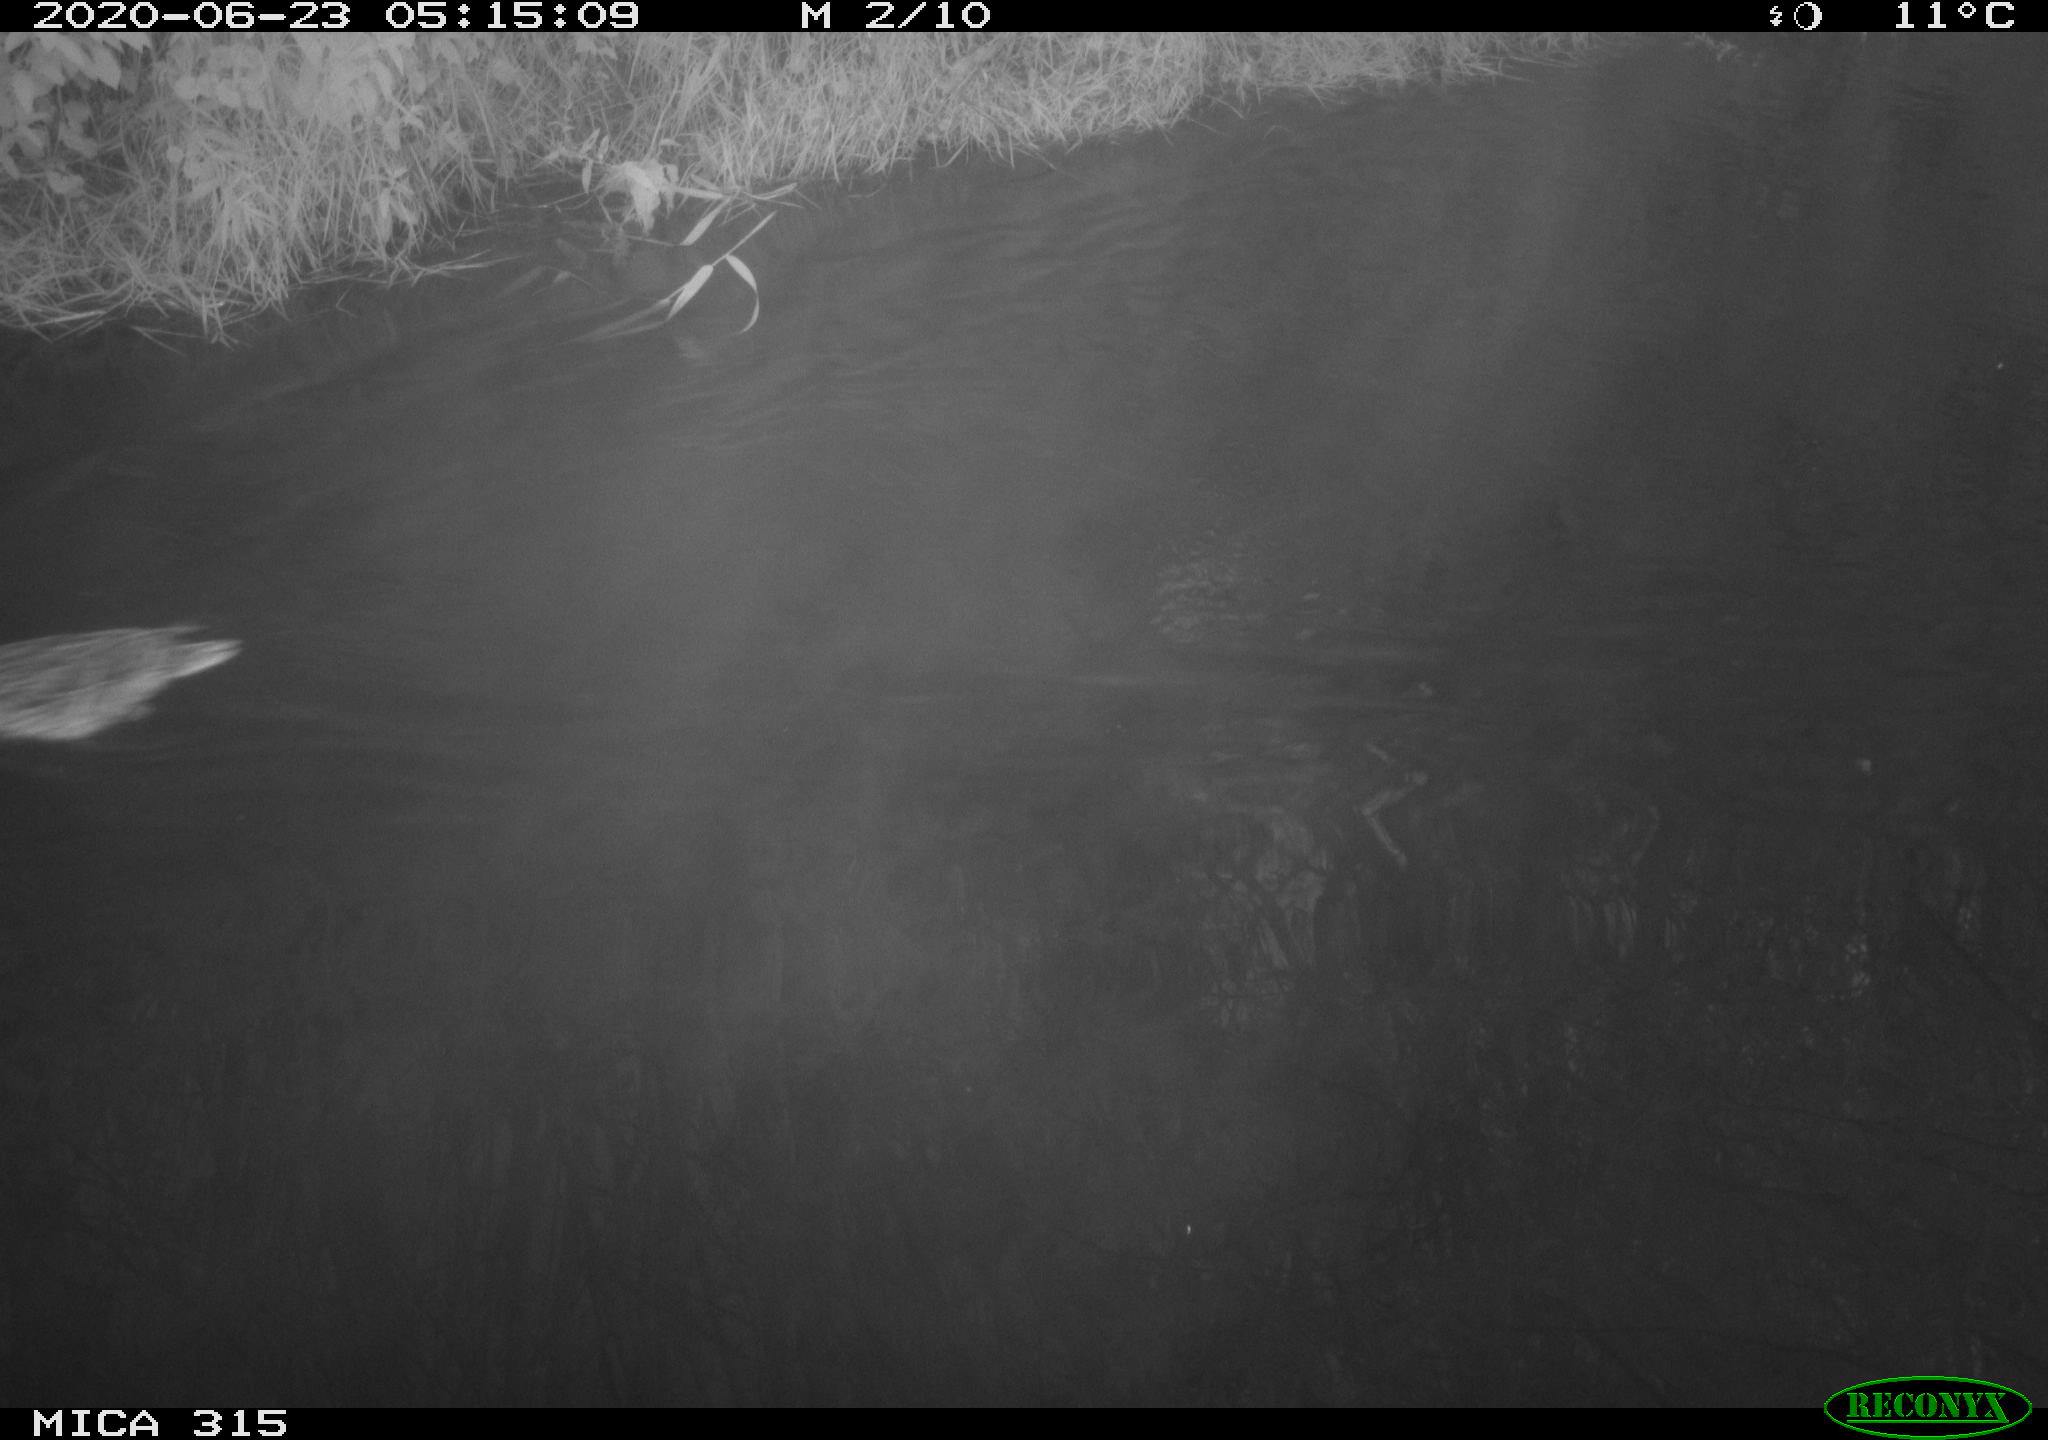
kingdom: Animalia
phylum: Chordata
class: Aves
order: Anseriformes
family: Anatidae
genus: Anas
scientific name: Anas platyrhynchos
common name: Mallard
